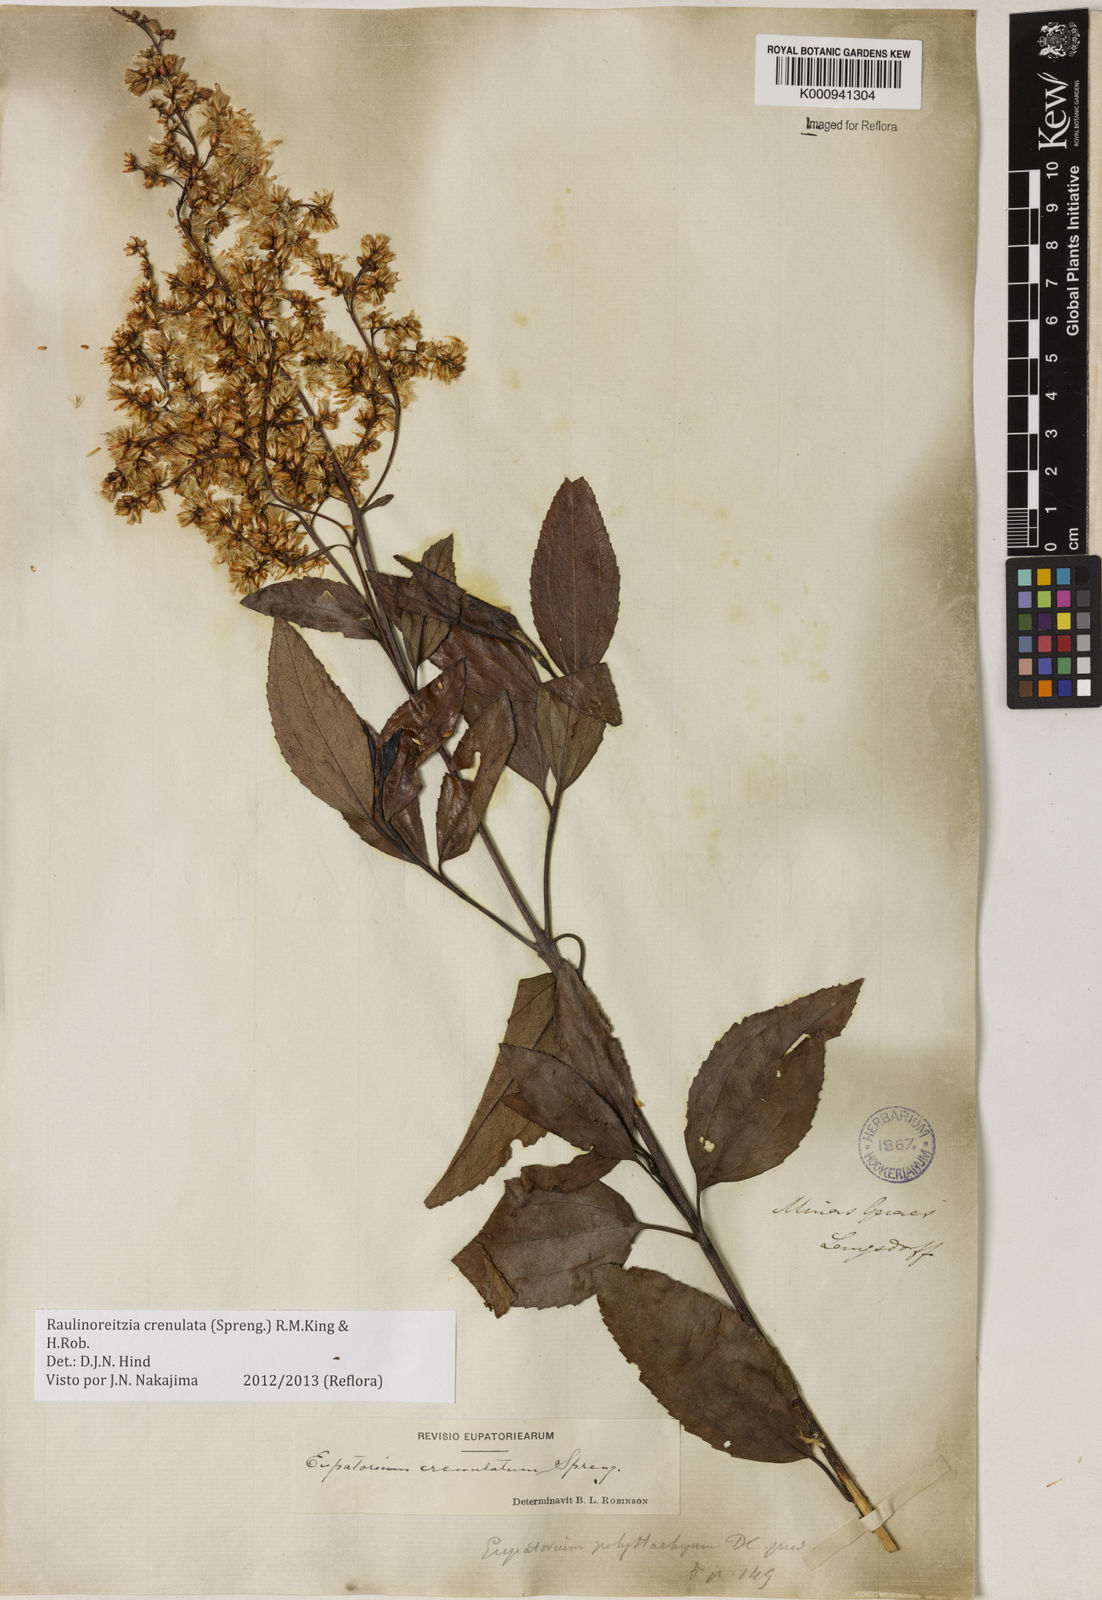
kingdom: Plantae
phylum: Tracheophyta
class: Magnoliopsida
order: Asterales
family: Asteraceae
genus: Raulinoreitzia
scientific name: Raulinoreitzia crenulata
